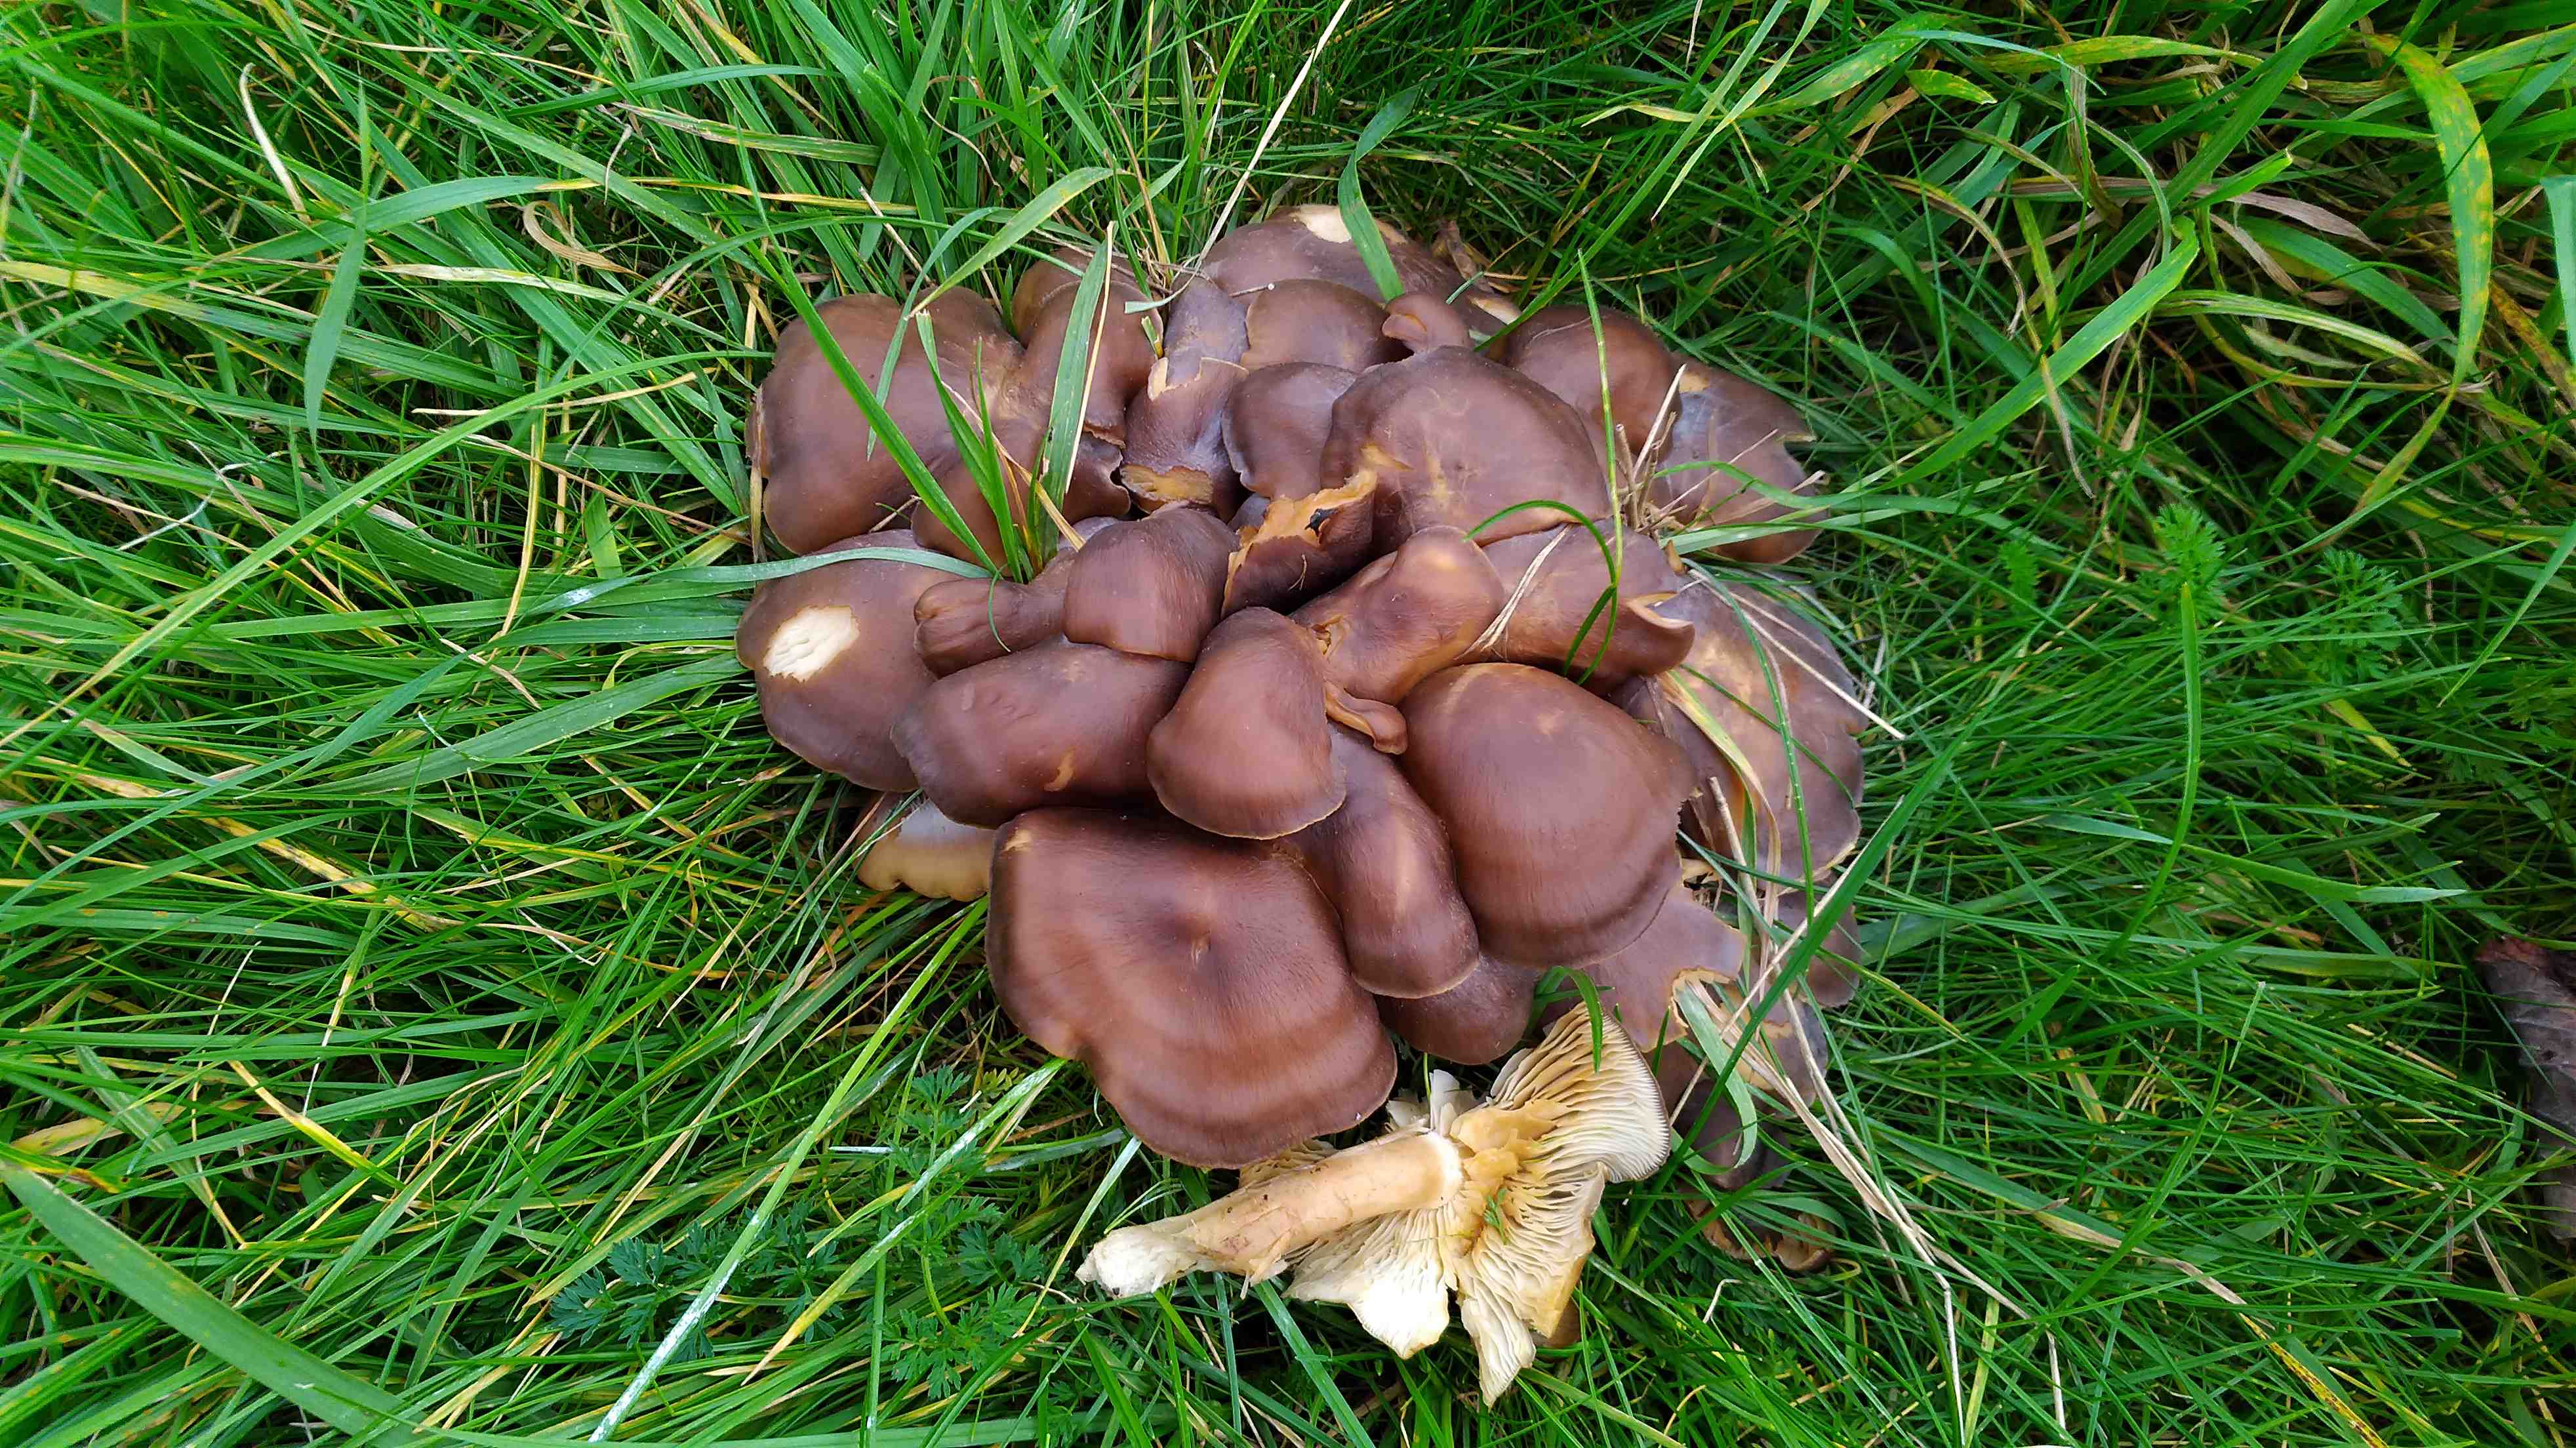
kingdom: Fungi
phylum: Basidiomycota
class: Agaricomycetes
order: Agaricales
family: Lyophyllaceae
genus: Lyophyllum
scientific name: Lyophyllum decastes
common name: Clustered domecap
